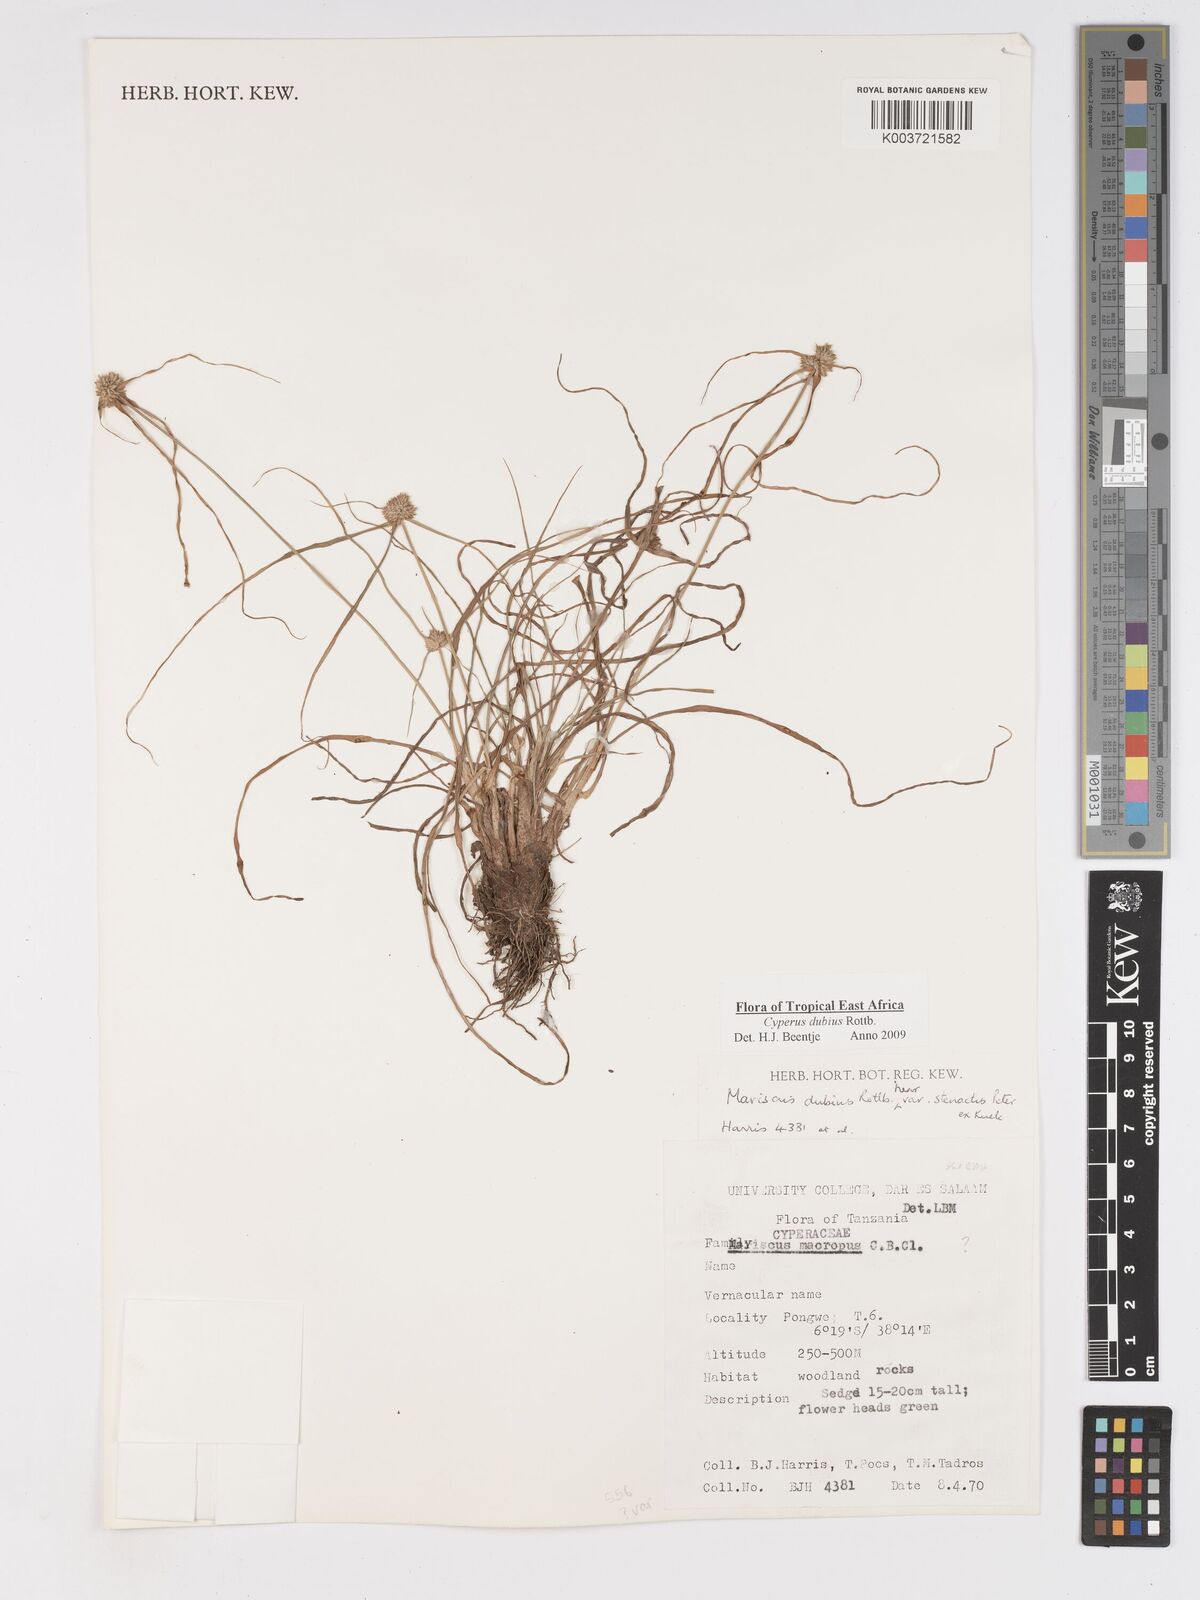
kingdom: Plantae
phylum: Tracheophyta
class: Liliopsida
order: Poales
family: Cyperaceae
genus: Cyperus
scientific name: Cyperus dubius
